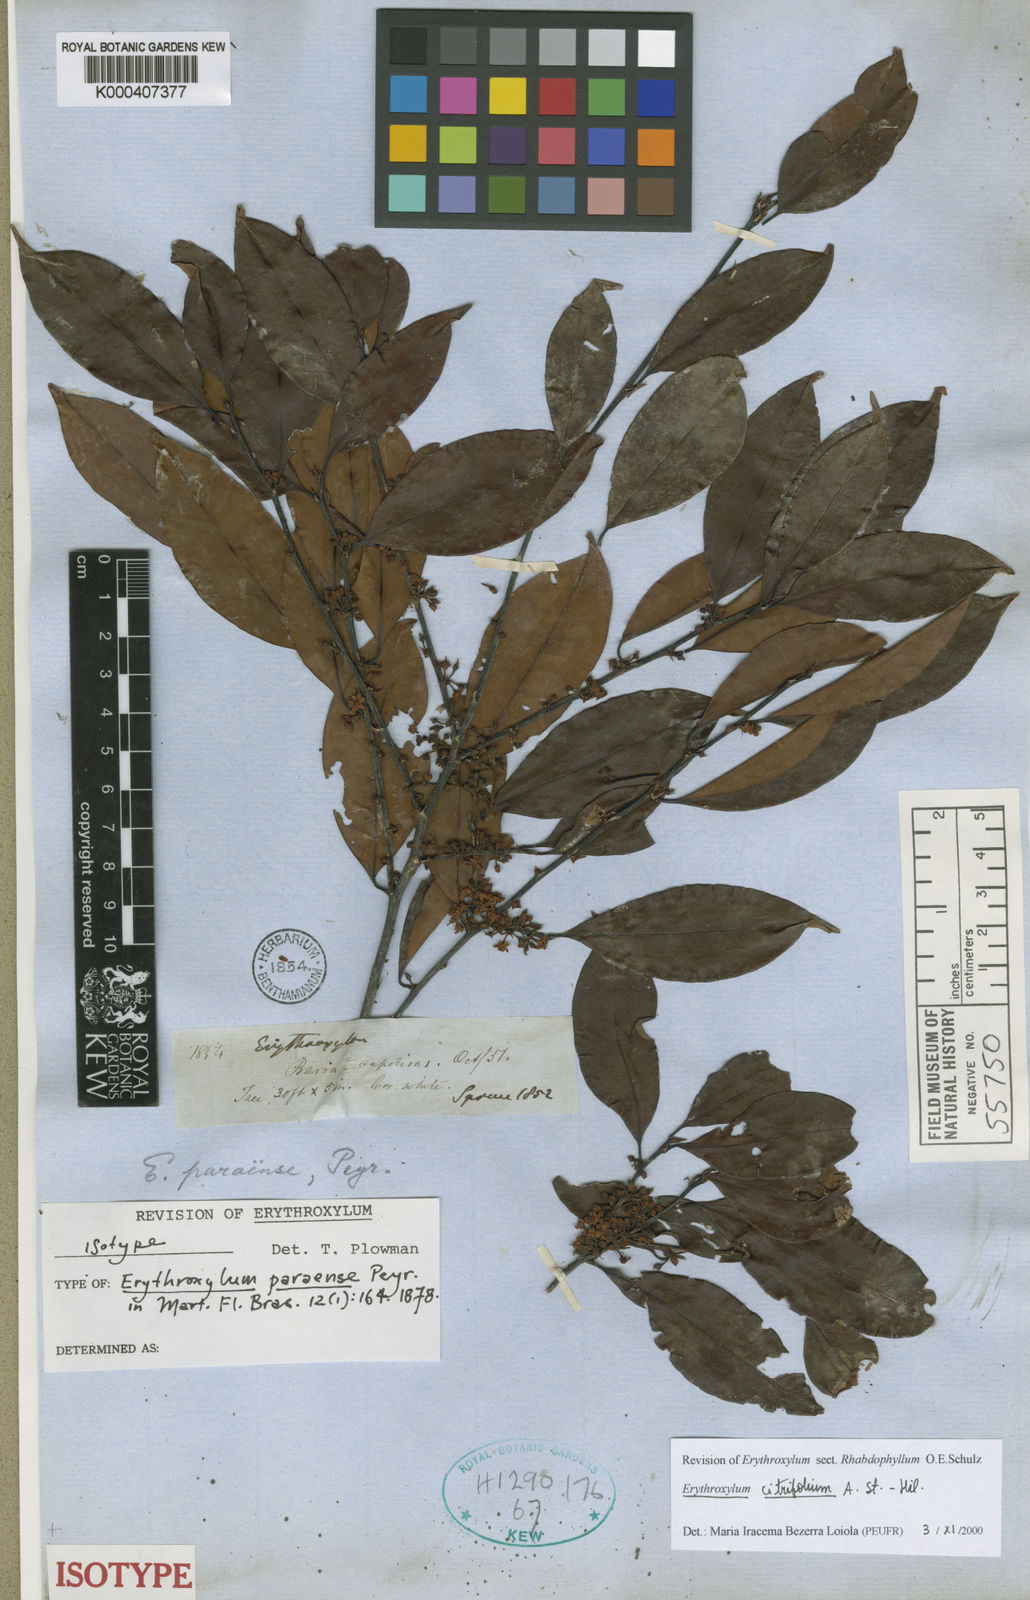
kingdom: Plantae
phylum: Tracheophyta
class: Magnoliopsida
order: Malpighiales
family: Erythroxylaceae
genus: Erythroxylum
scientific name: Erythroxylum citrifolium
